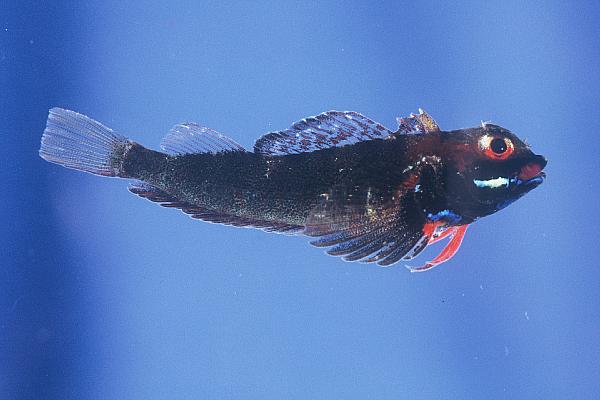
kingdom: Animalia
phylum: Chordata
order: Perciformes
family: Tripterygiidae
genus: Helcogramma
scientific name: Helcogramma rharhabe
